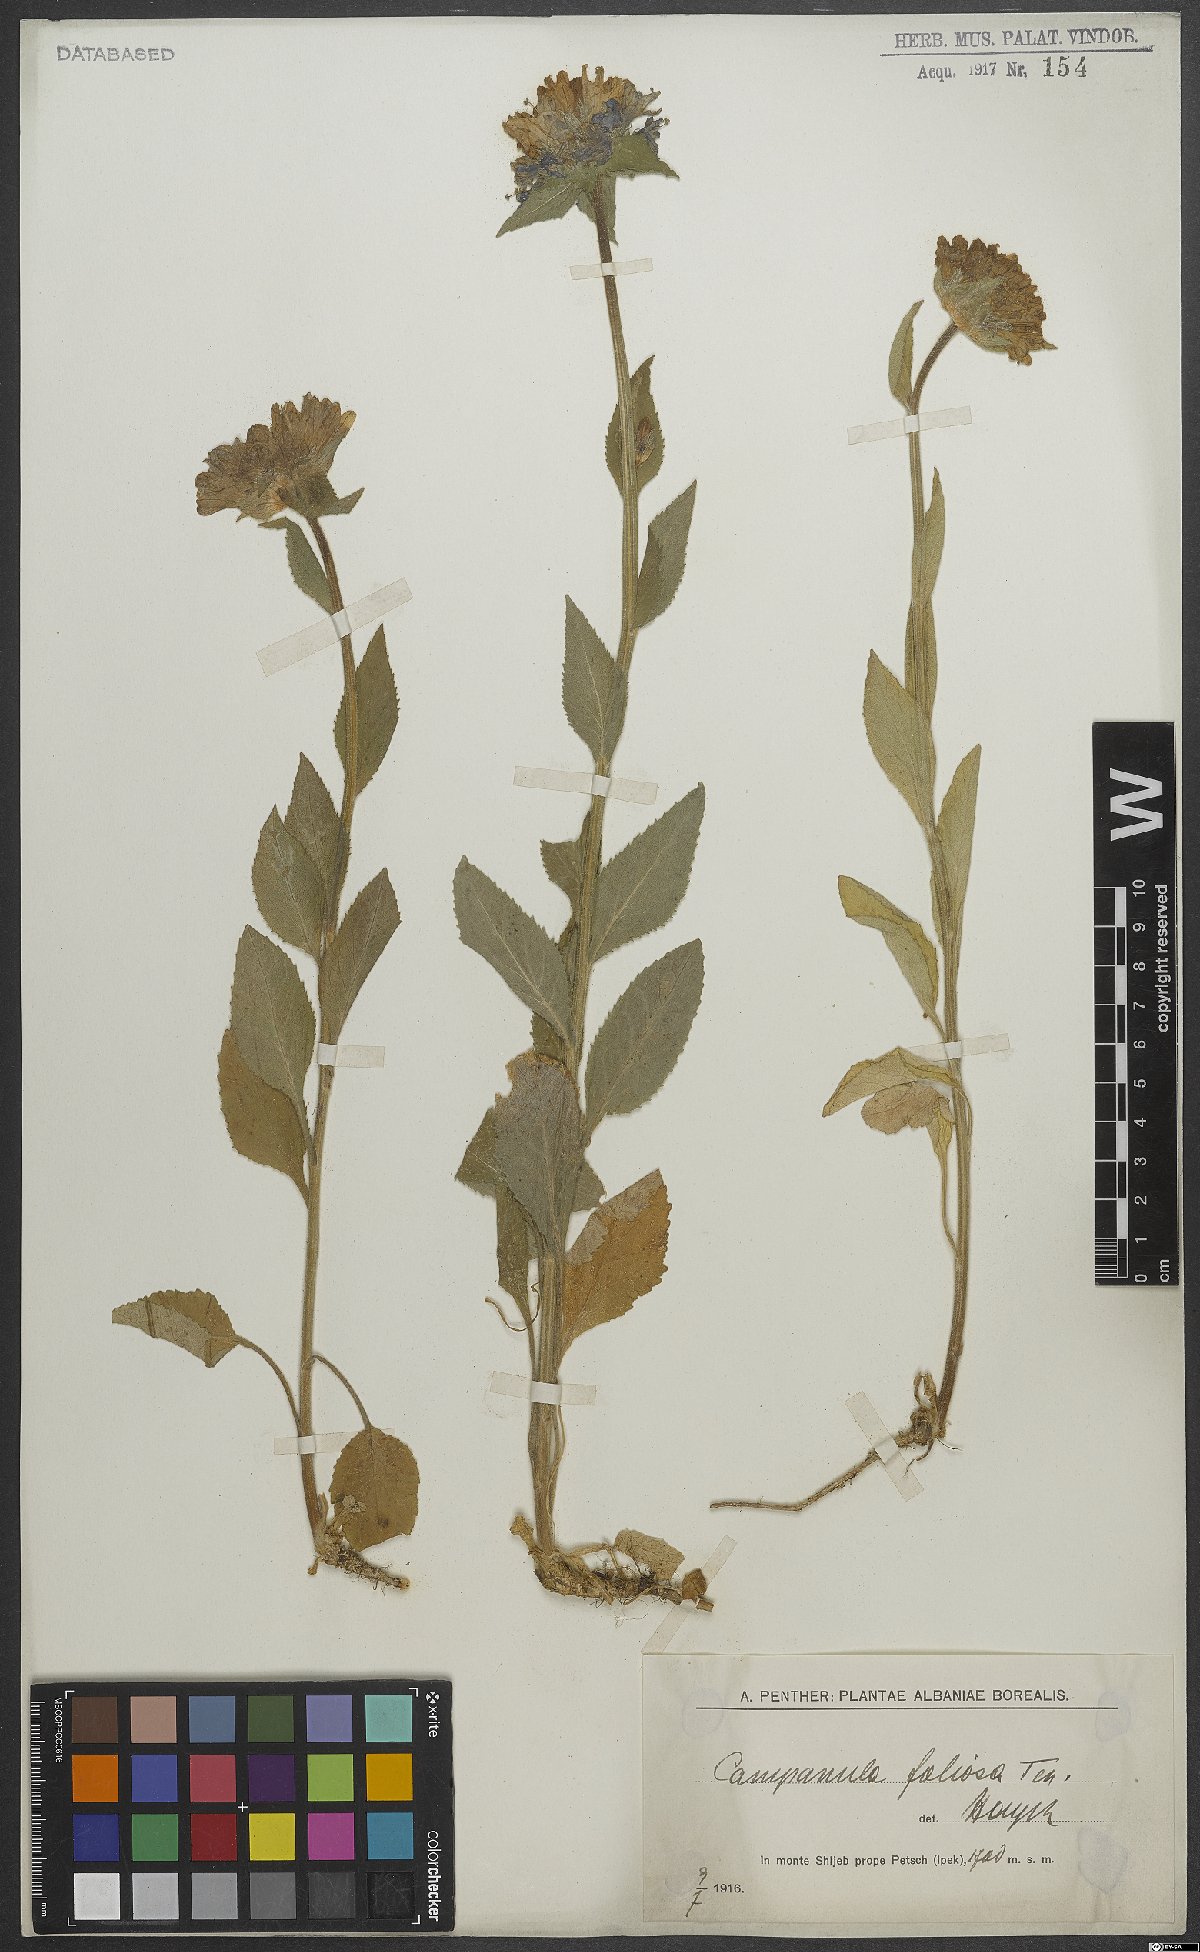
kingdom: Plantae
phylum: Tracheophyta
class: Magnoliopsida
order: Asterales
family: Campanulaceae
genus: Campanula
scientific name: Campanula foliosa
